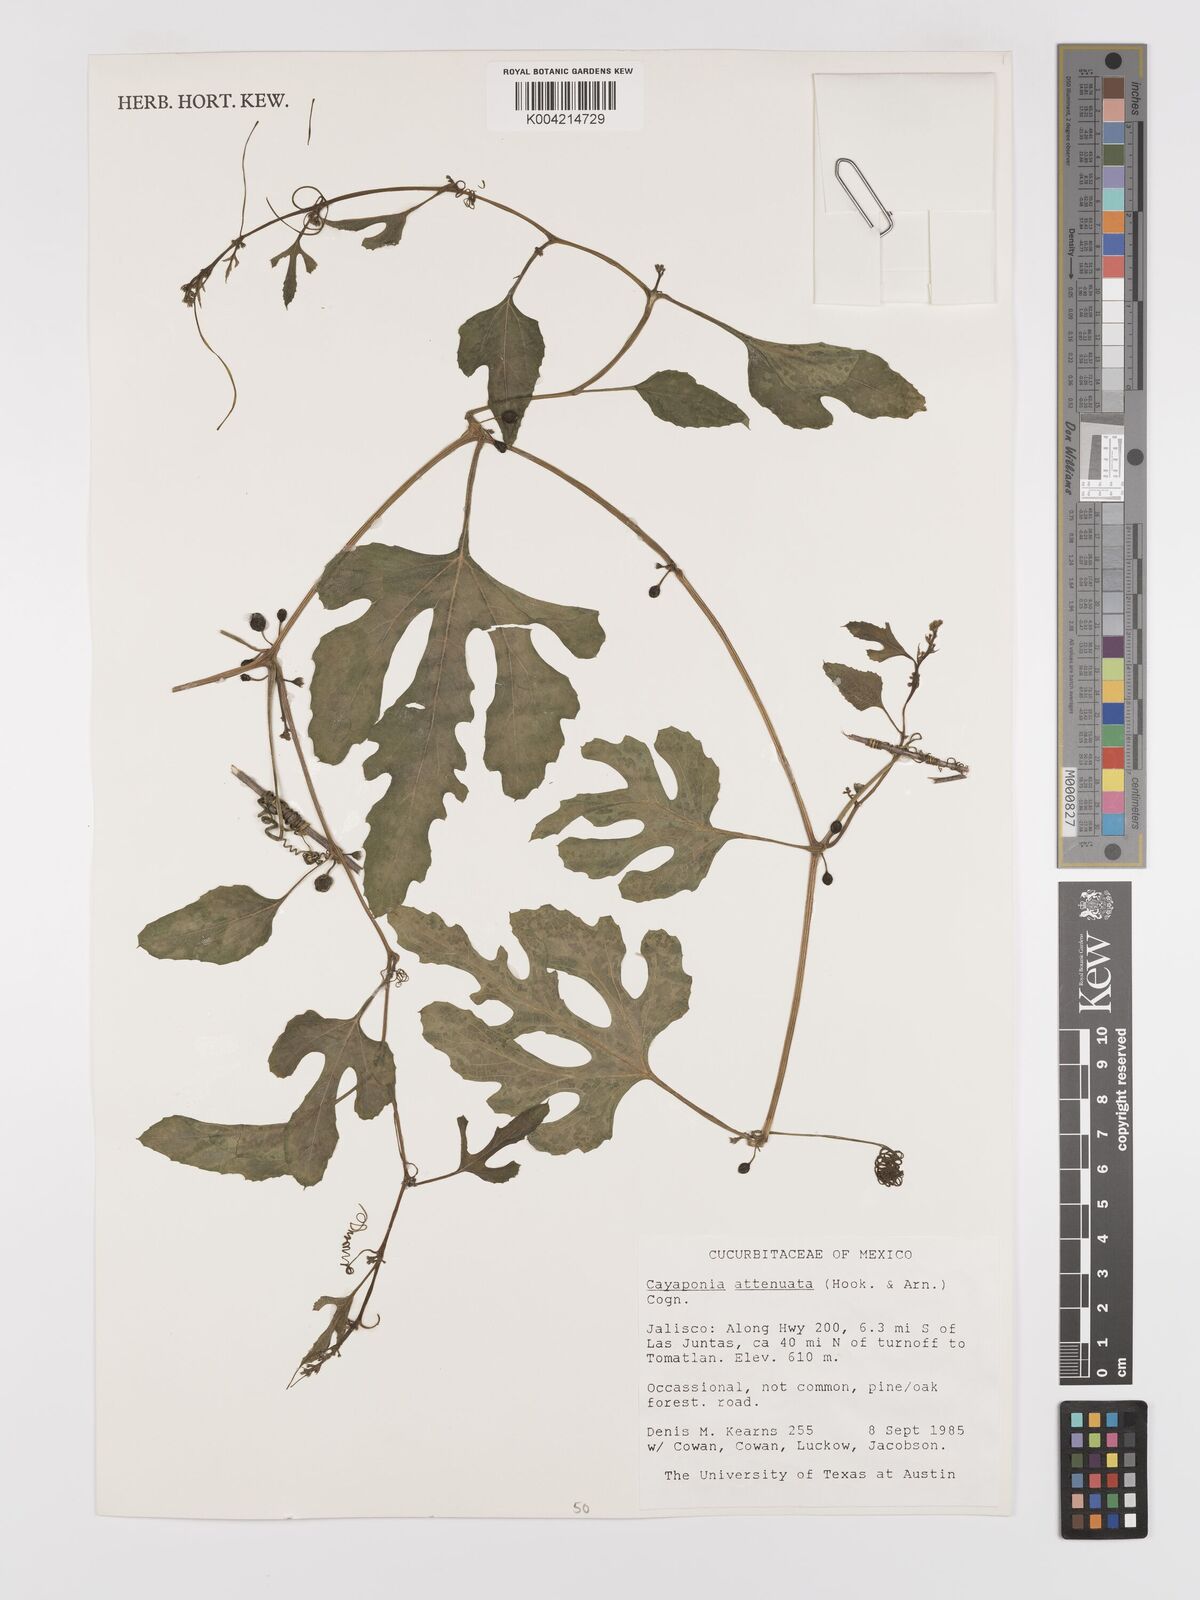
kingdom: Plantae
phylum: Tracheophyta
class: Magnoliopsida
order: Cucurbitales
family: Cucurbitaceae
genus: Cayaponia
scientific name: Cayaponia attenuata
